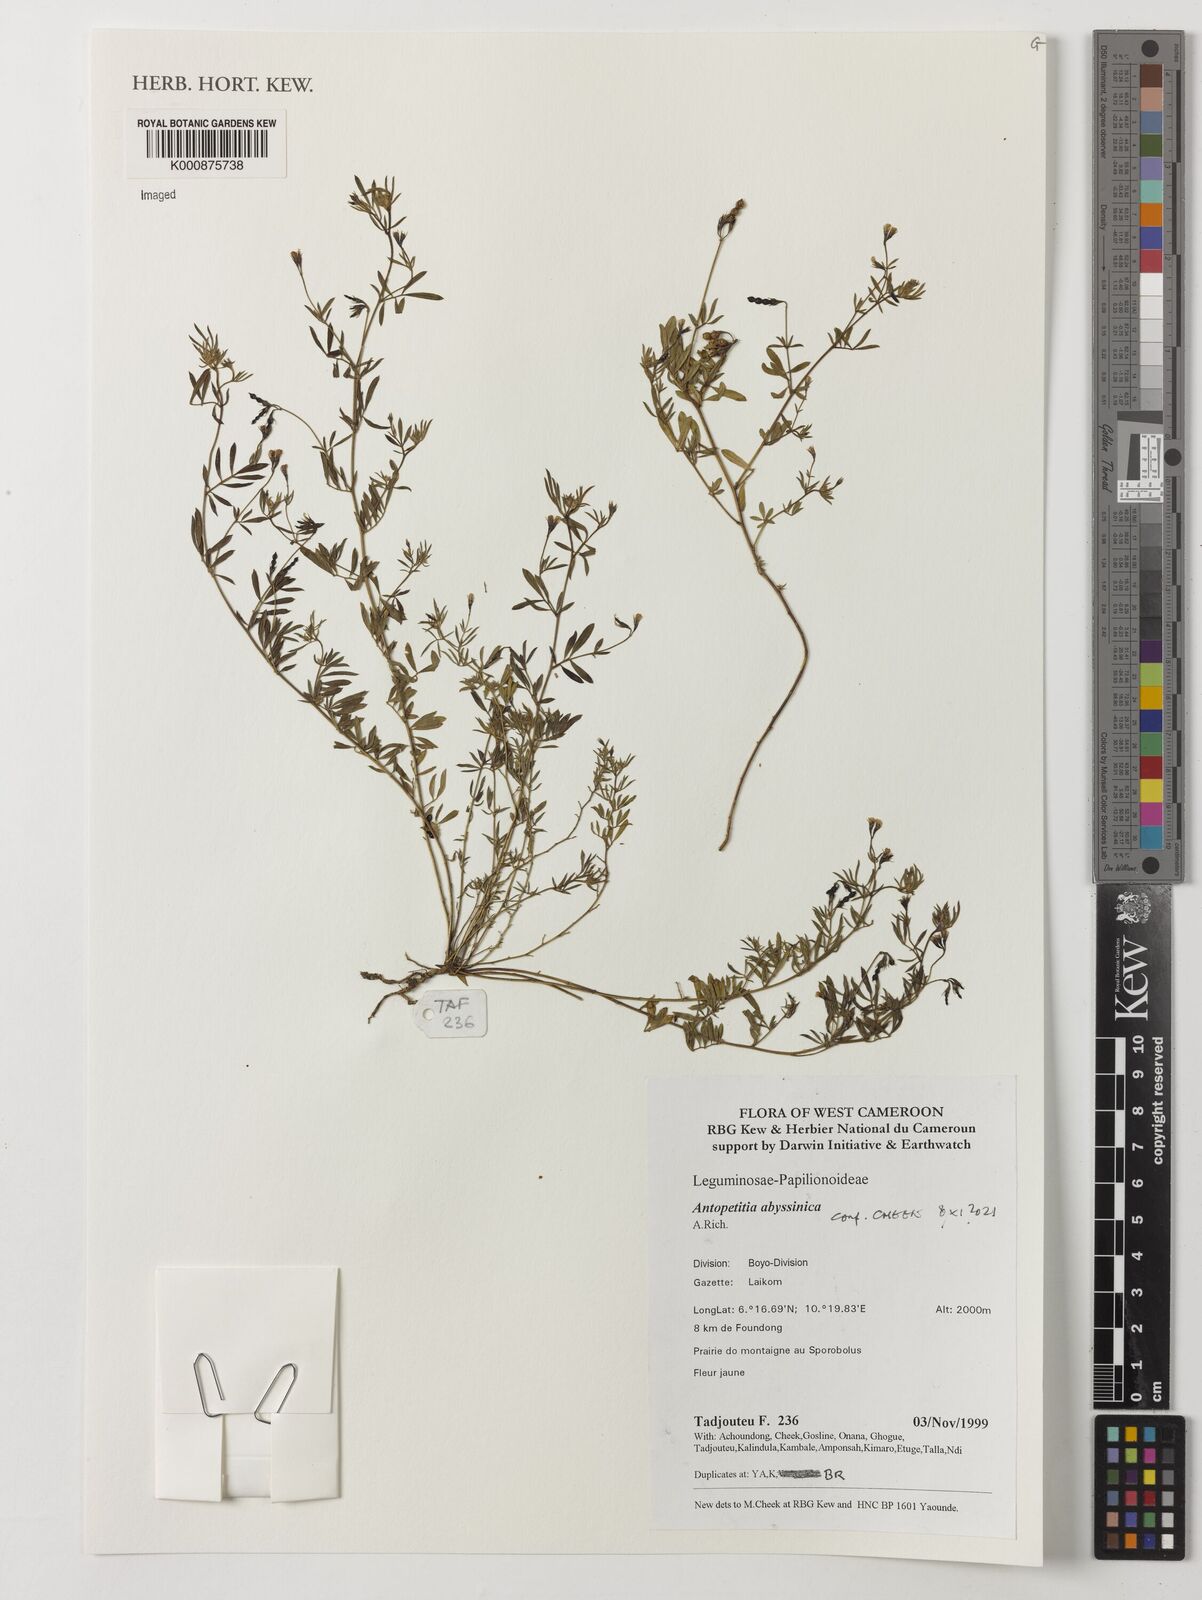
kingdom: Plantae
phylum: Tracheophyta
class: Magnoliopsida
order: Fabales
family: Fabaceae
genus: Antopetitia
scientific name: Antopetitia abyssinica
